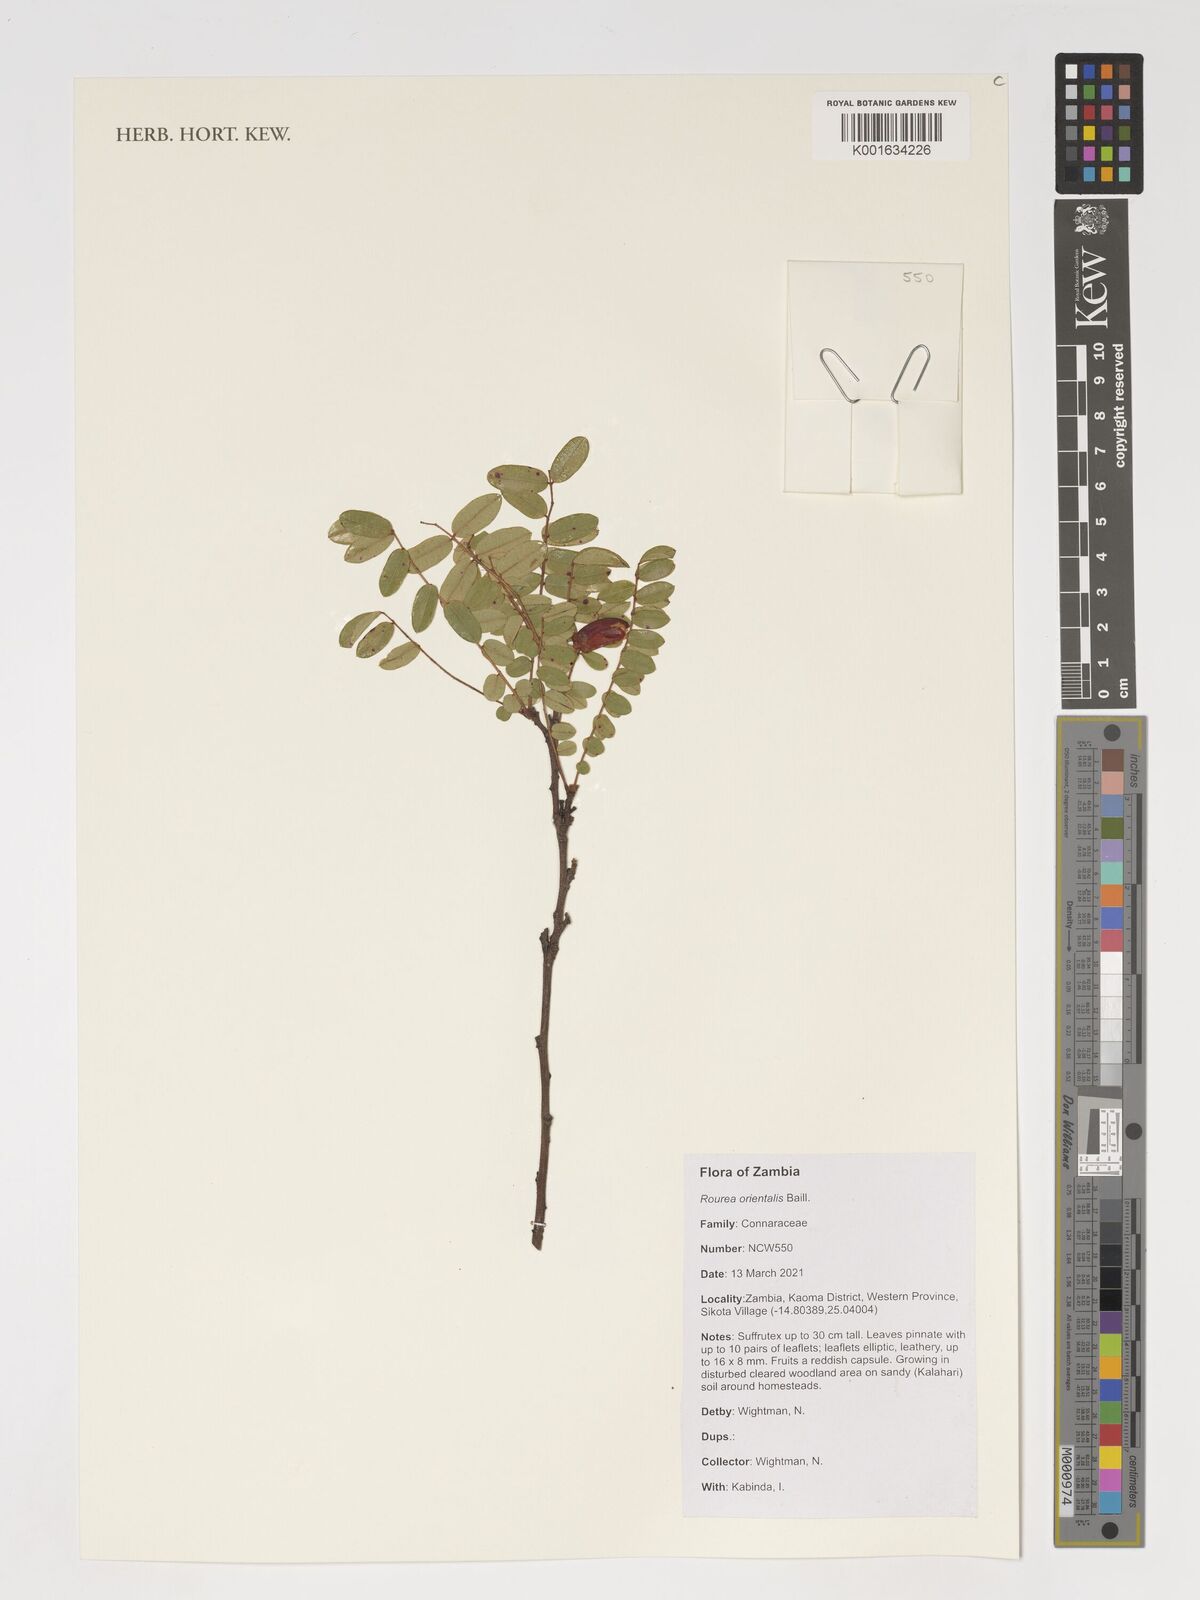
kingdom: Plantae
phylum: Tracheophyta
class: Magnoliopsida
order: Oxalidales
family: Connaraceae
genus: Rourea
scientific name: Rourea orientalis
